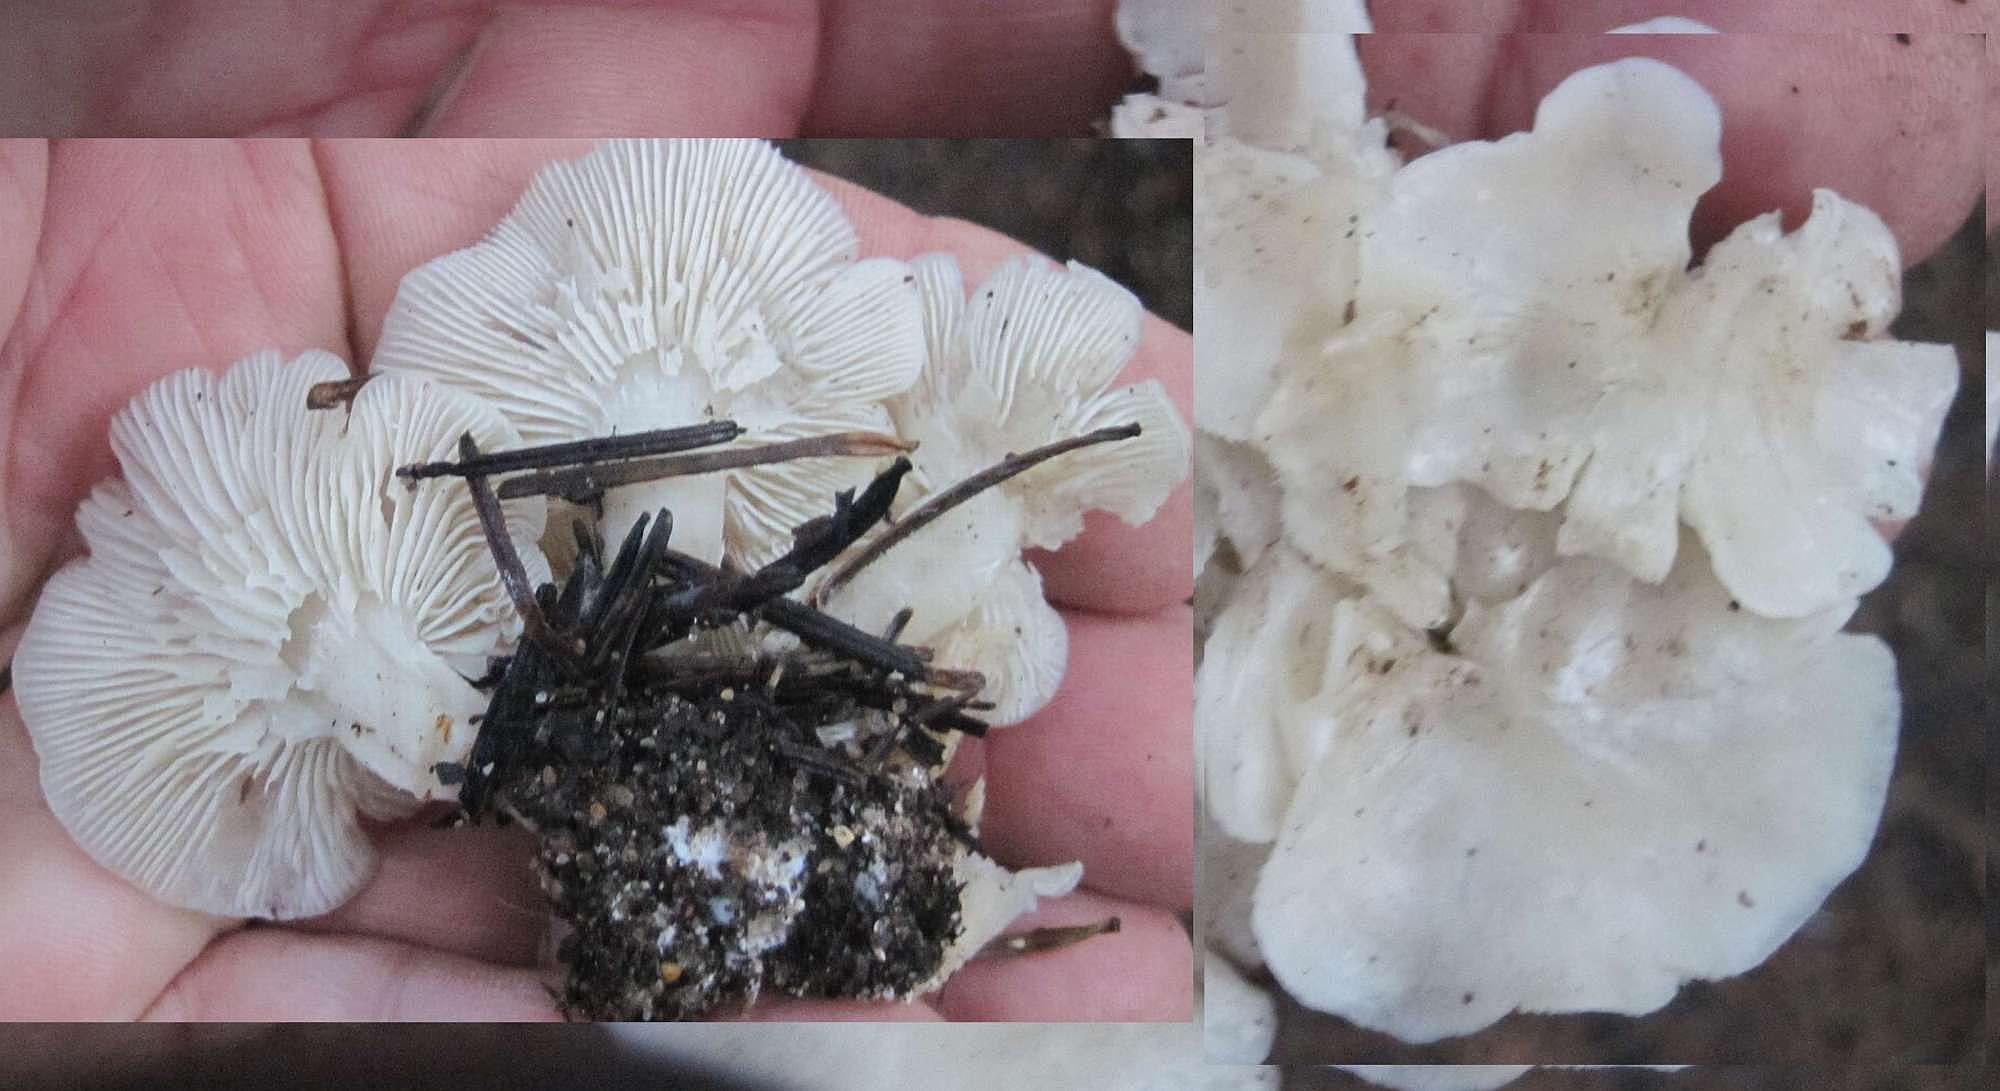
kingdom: Fungi
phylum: Basidiomycota
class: Agaricomycetes
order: Agaricales
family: Tricholomataceae
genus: Leucocybe
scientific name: Leucocybe connata
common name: knippe-tragthat
